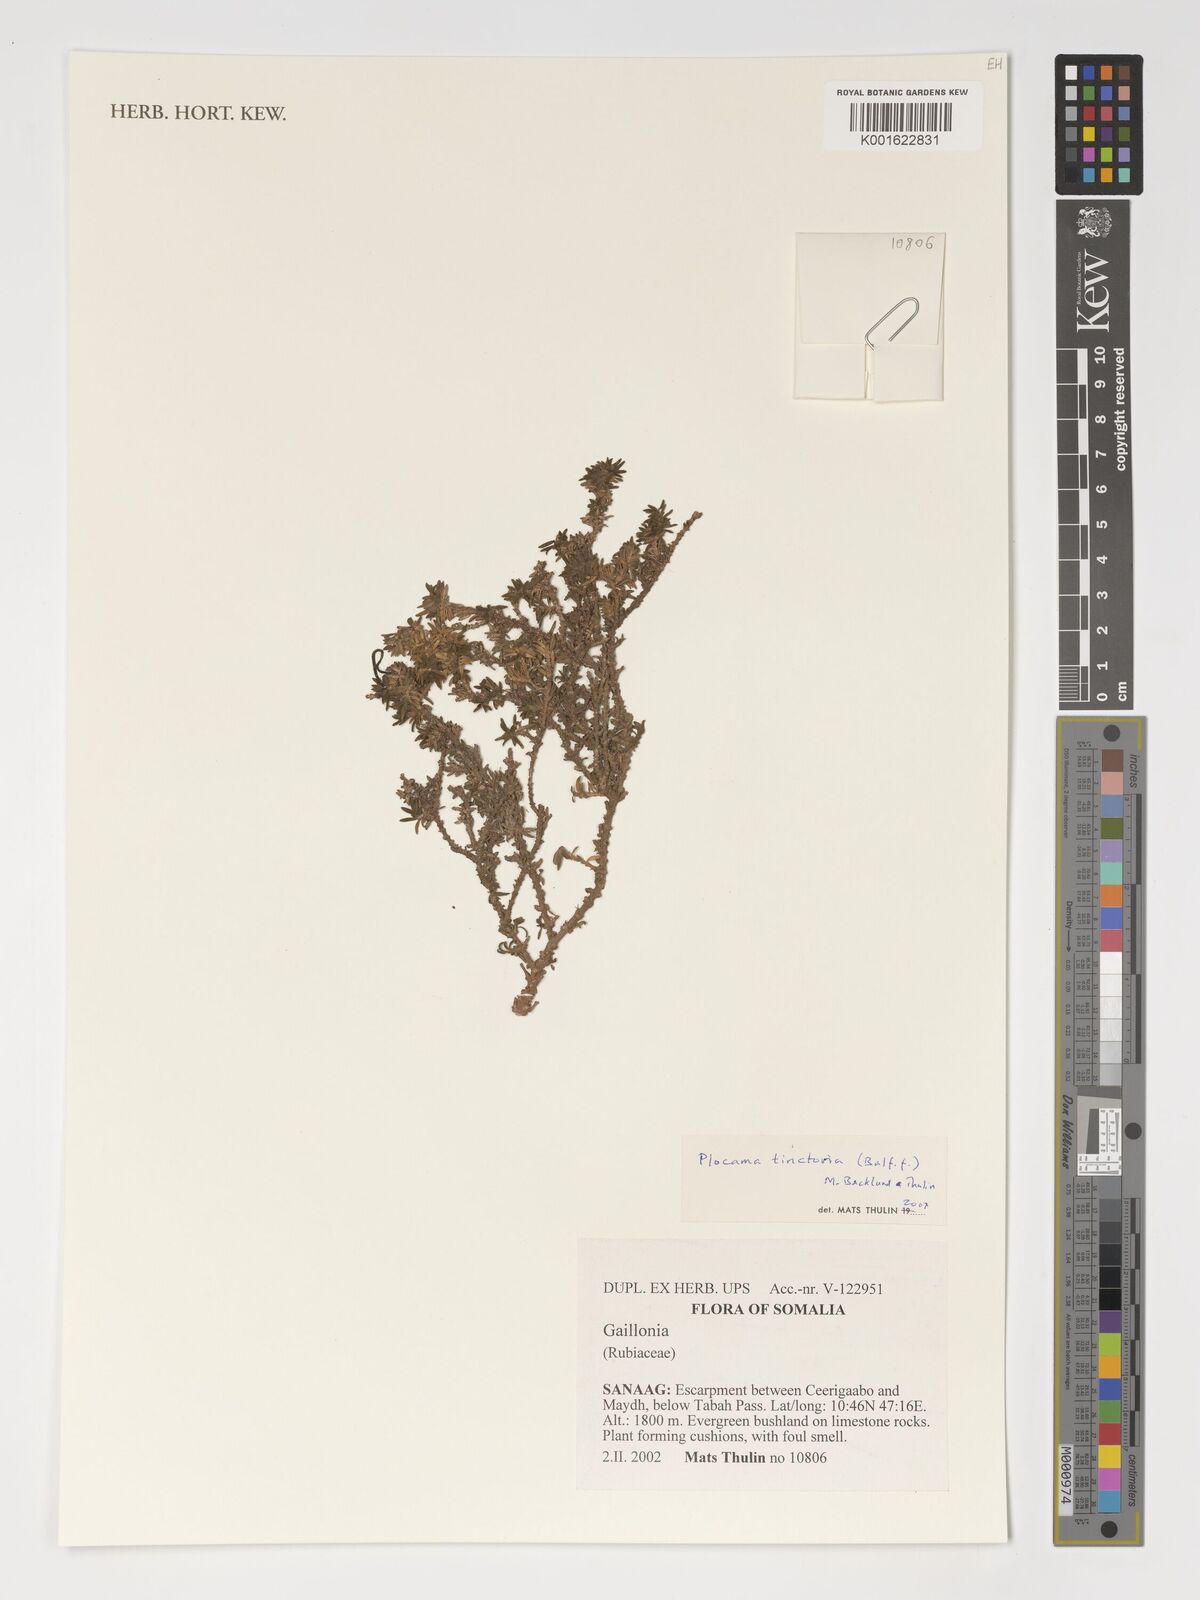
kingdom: Plantae
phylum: Tracheophyta
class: Magnoliopsida
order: Gentianales
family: Rubiaceae
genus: Plocama
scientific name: Plocama tinctoria
